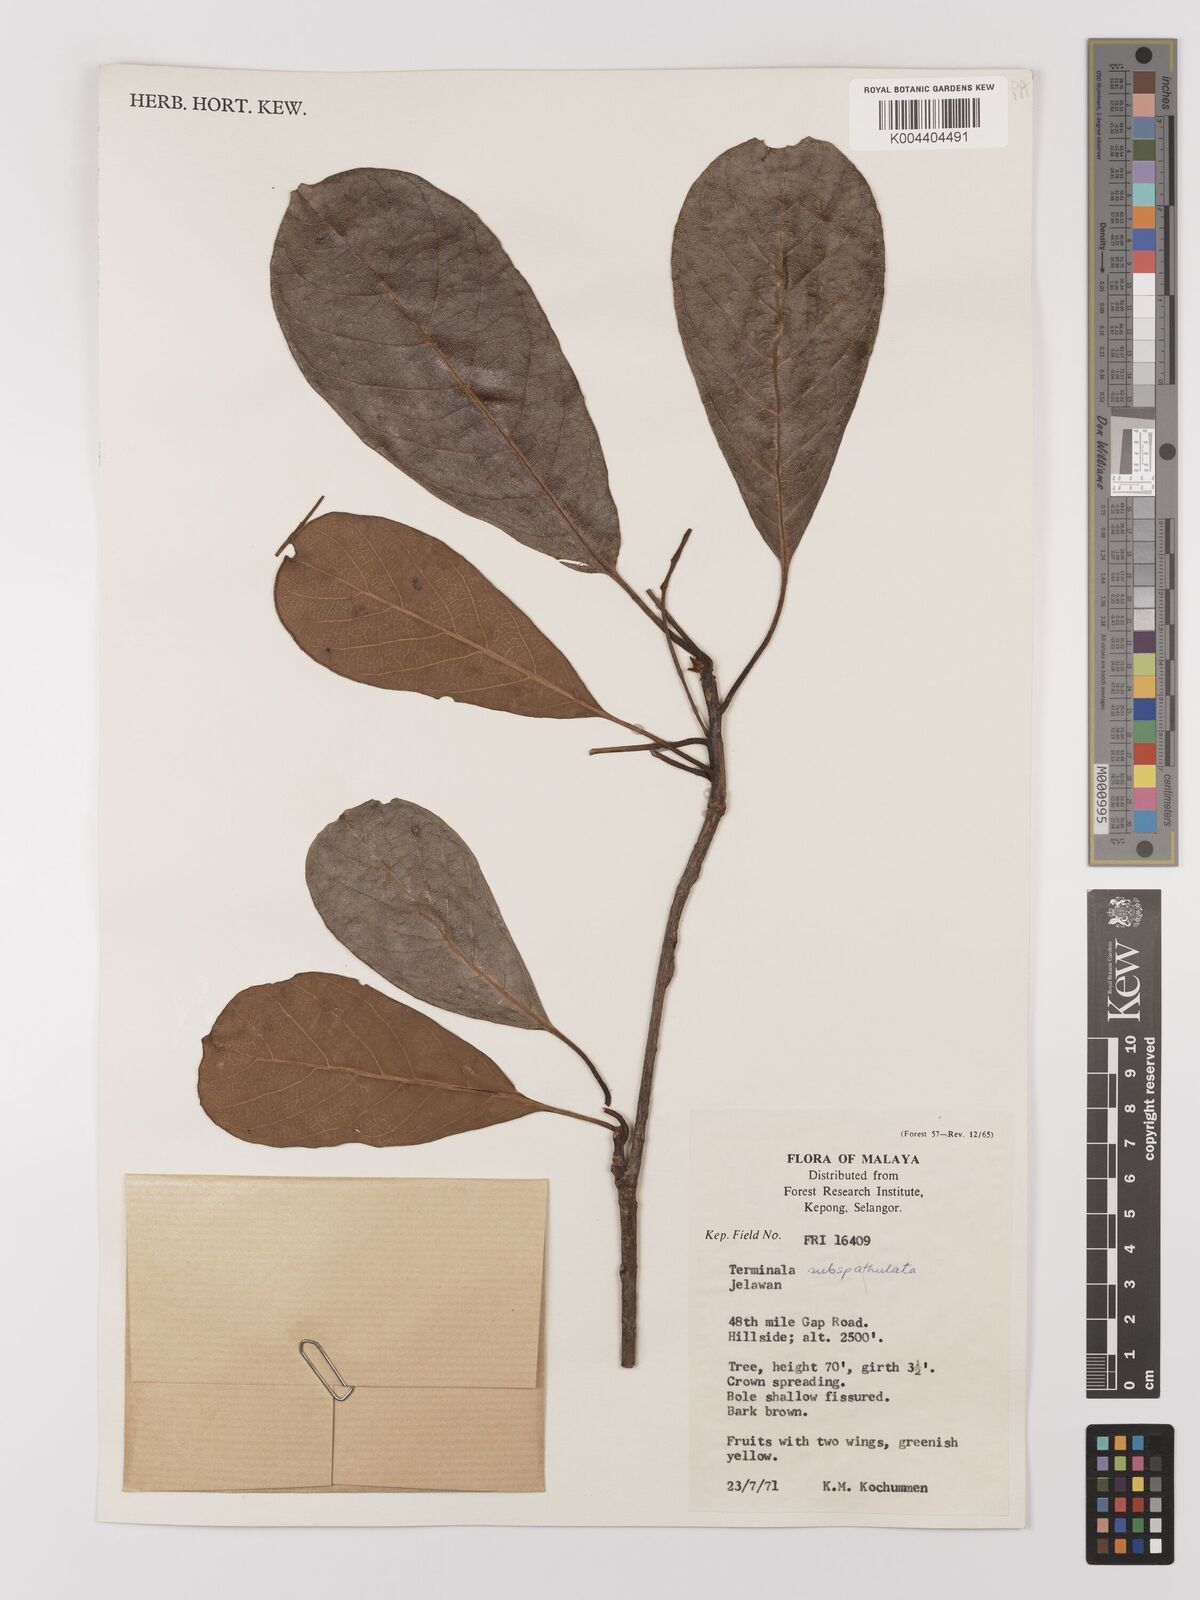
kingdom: Plantae
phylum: Tracheophyta
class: Magnoliopsida
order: Myrtales
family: Combretaceae
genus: Terminalia
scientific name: Terminalia subspathulata
